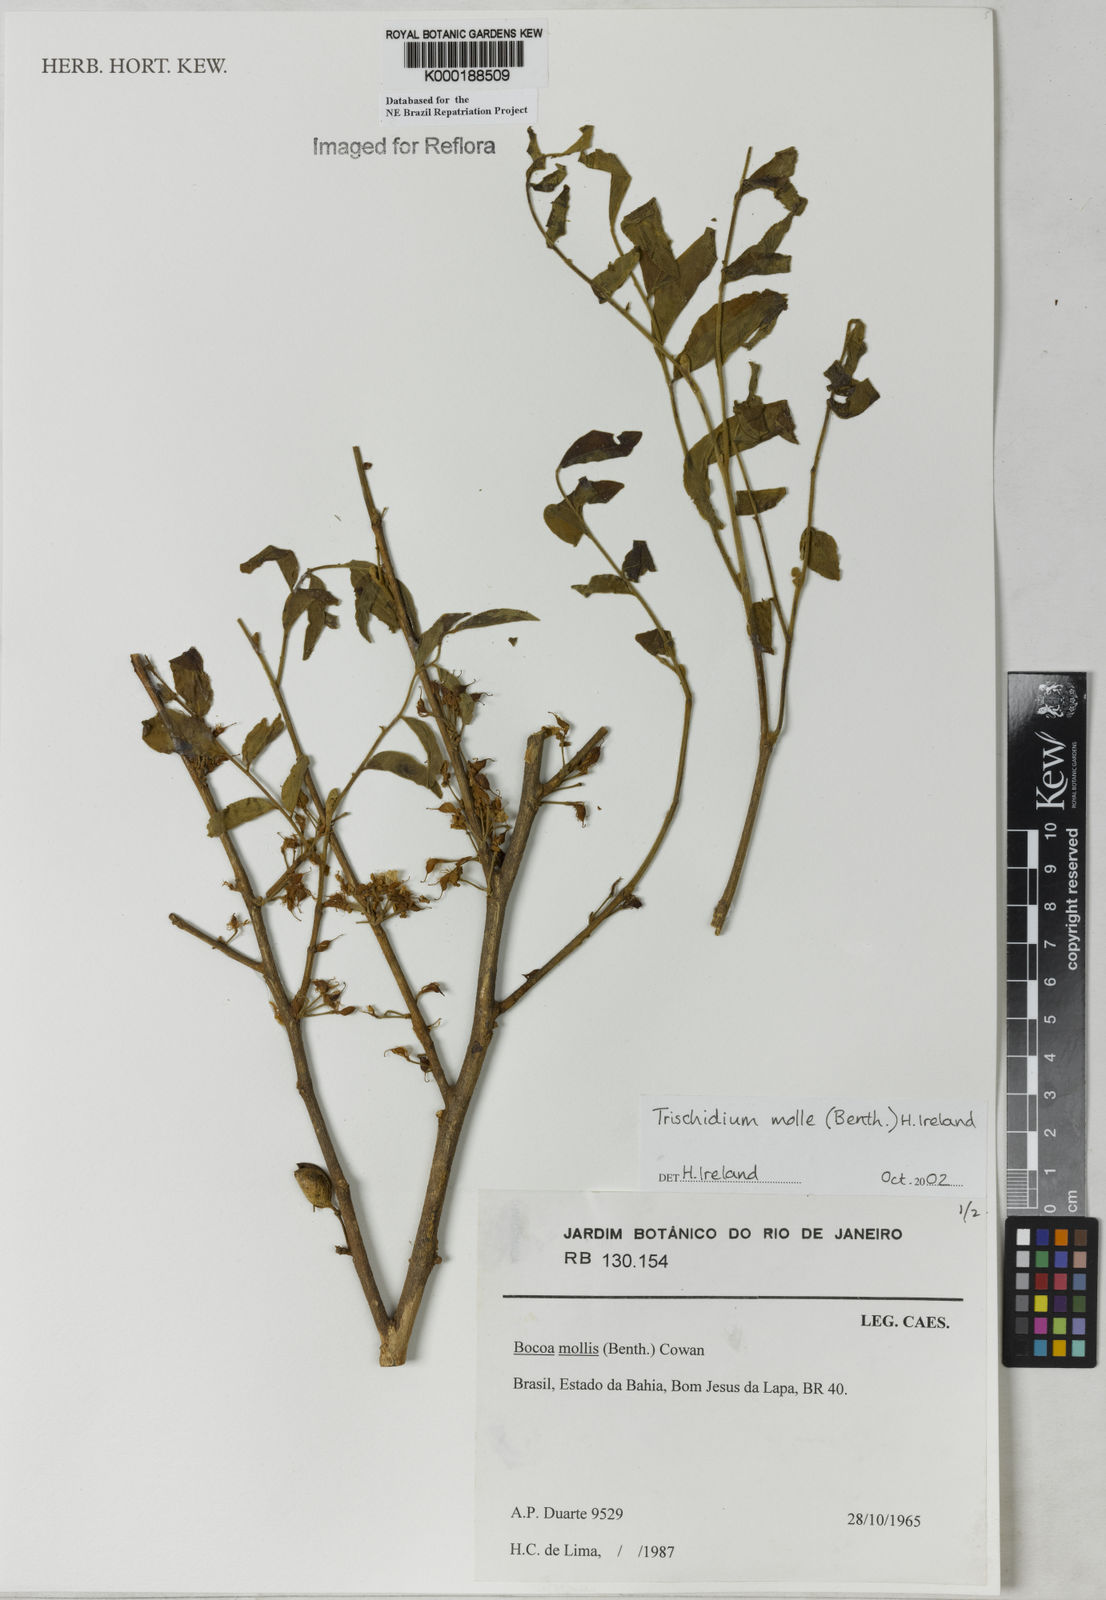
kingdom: Plantae
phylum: Tracheophyta
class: Magnoliopsida
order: Fabales
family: Fabaceae
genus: Trischidium
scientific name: Trischidium
